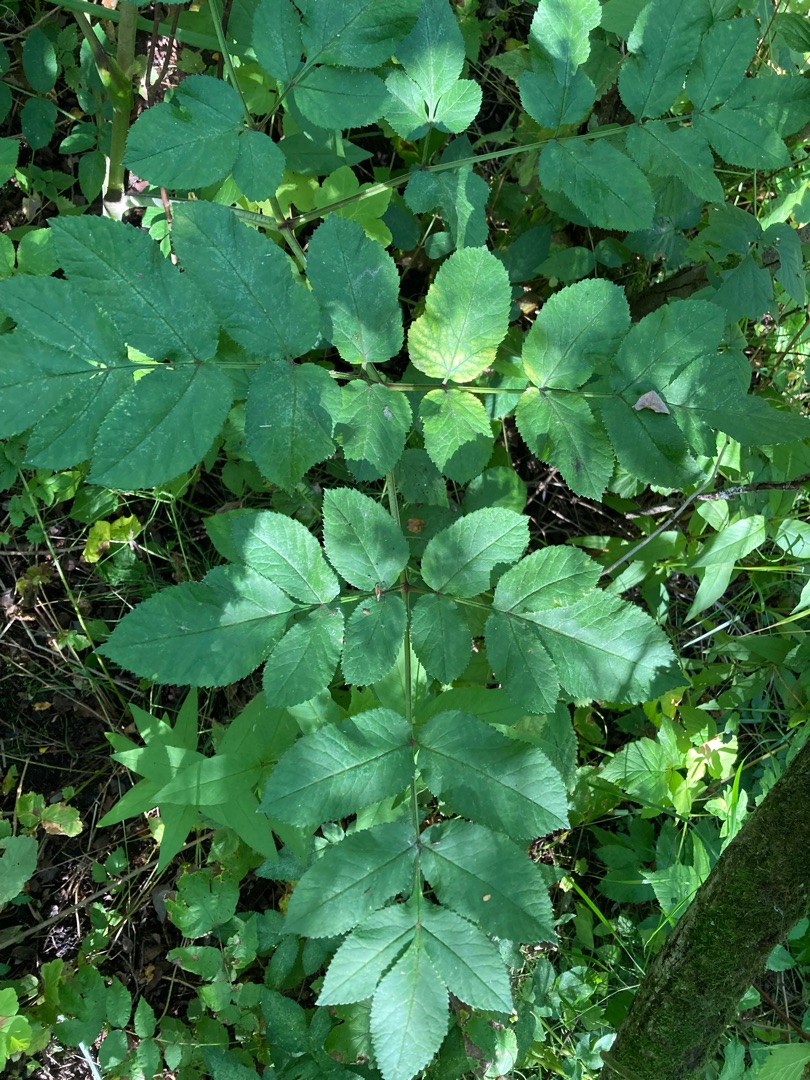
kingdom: Plantae
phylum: Tracheophyta
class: Magnoliopsida
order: Apiales
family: Apiaceae
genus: Angelica
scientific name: Angelica sylvestris
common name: Angelik
